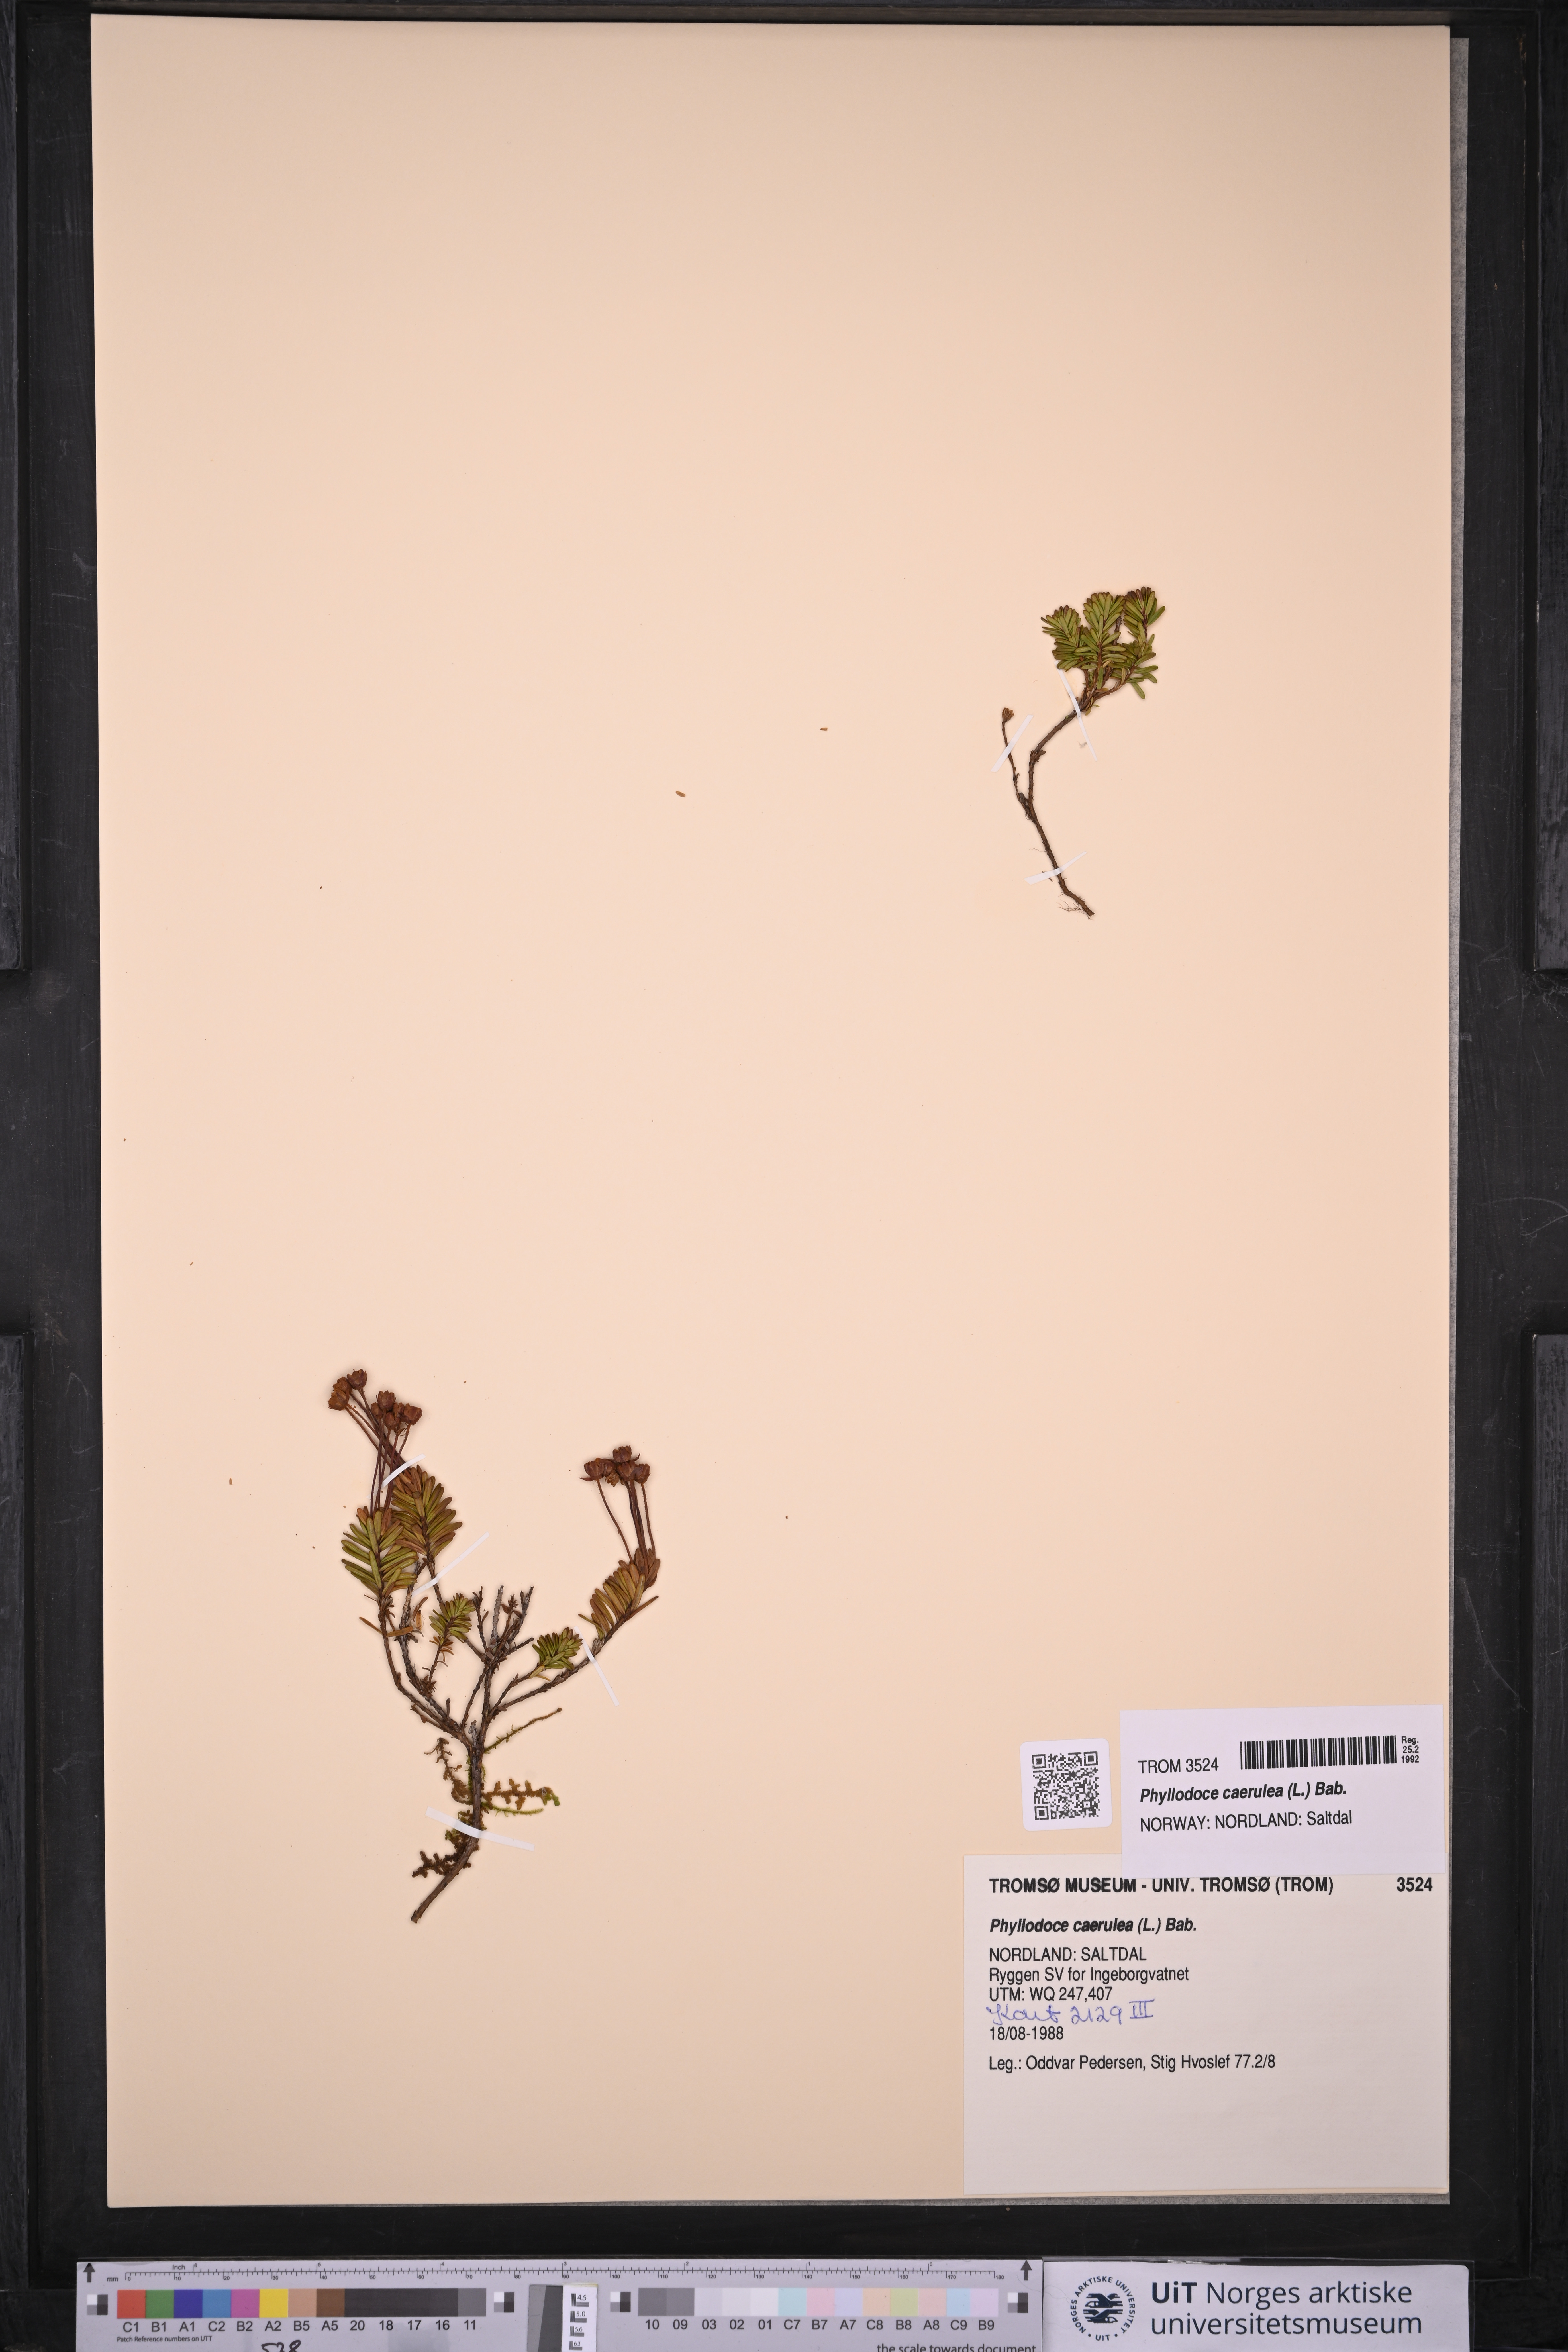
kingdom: Plantae
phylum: Tracheophyta
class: Magnoliopsida
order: Ericales
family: Ericaceae
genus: Phyllodoce
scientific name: Phyllodoce caerulea
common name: Blue heath
